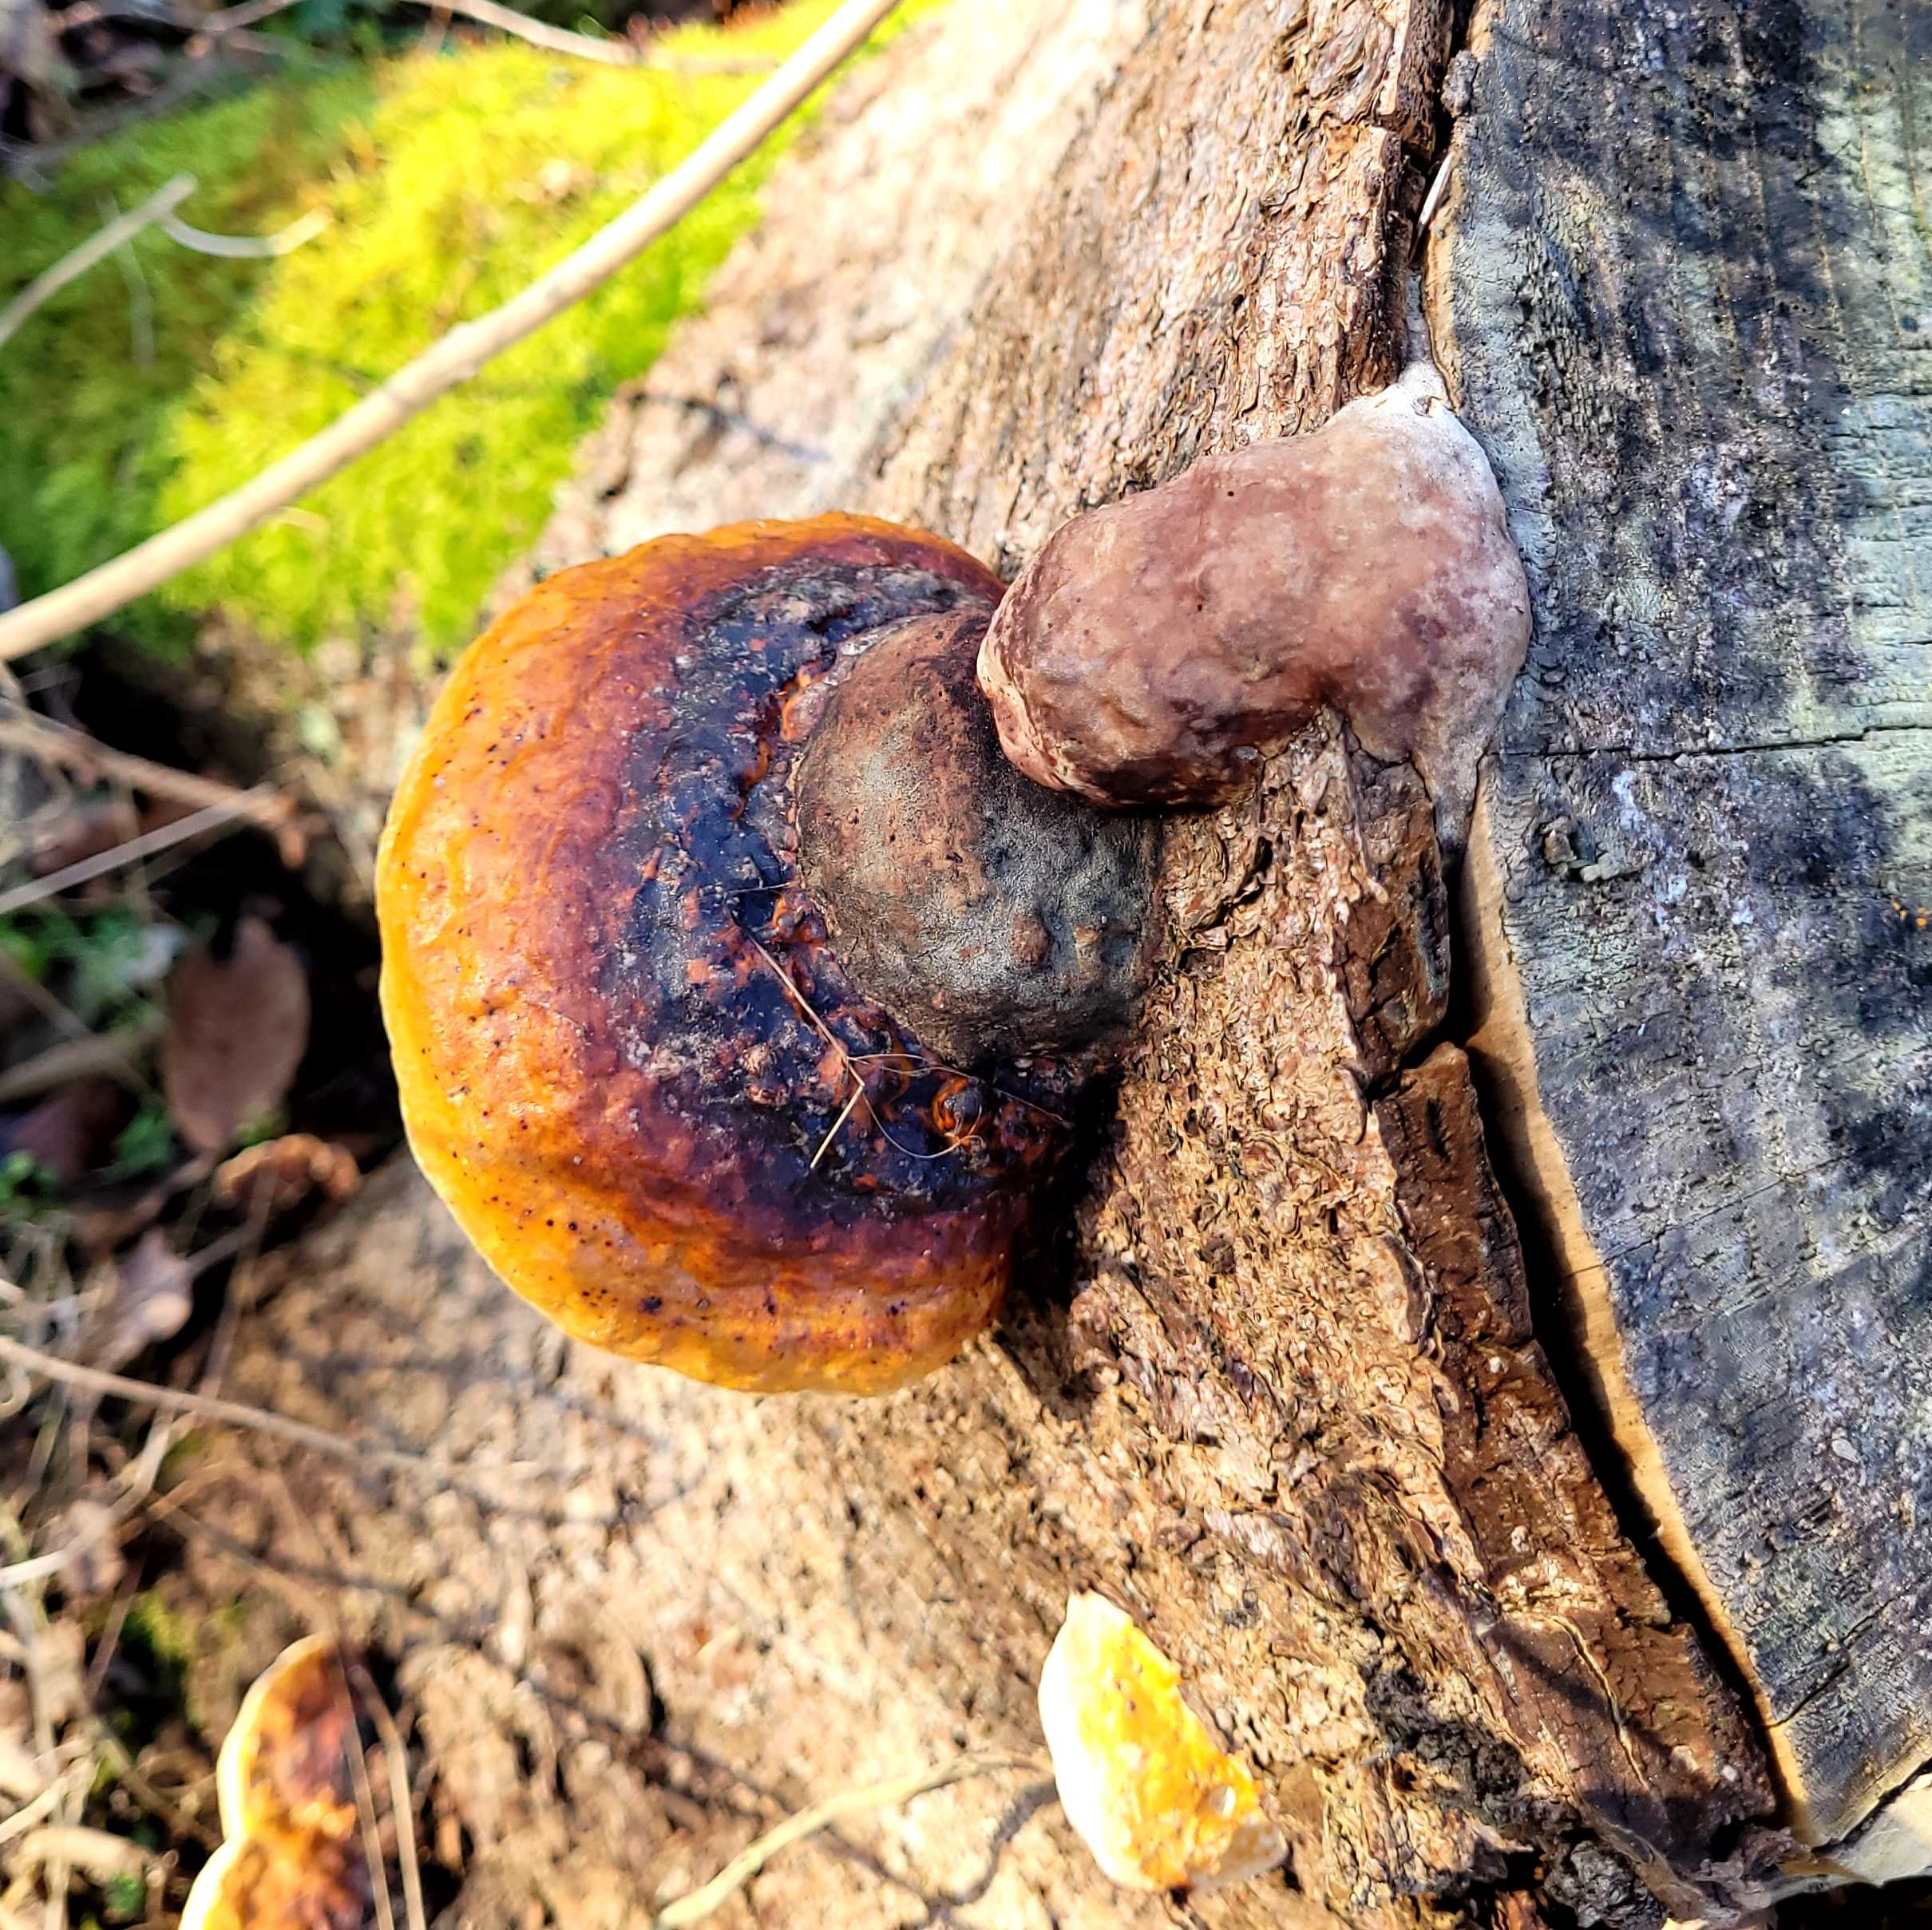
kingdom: Fungi
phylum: Basidiomycota
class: Agaricomycetes
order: Polyporales
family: Fomitopsidaceae
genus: Fomitopsis
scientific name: Fomitopsis pinicola
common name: randbæltet hovporesvamp
